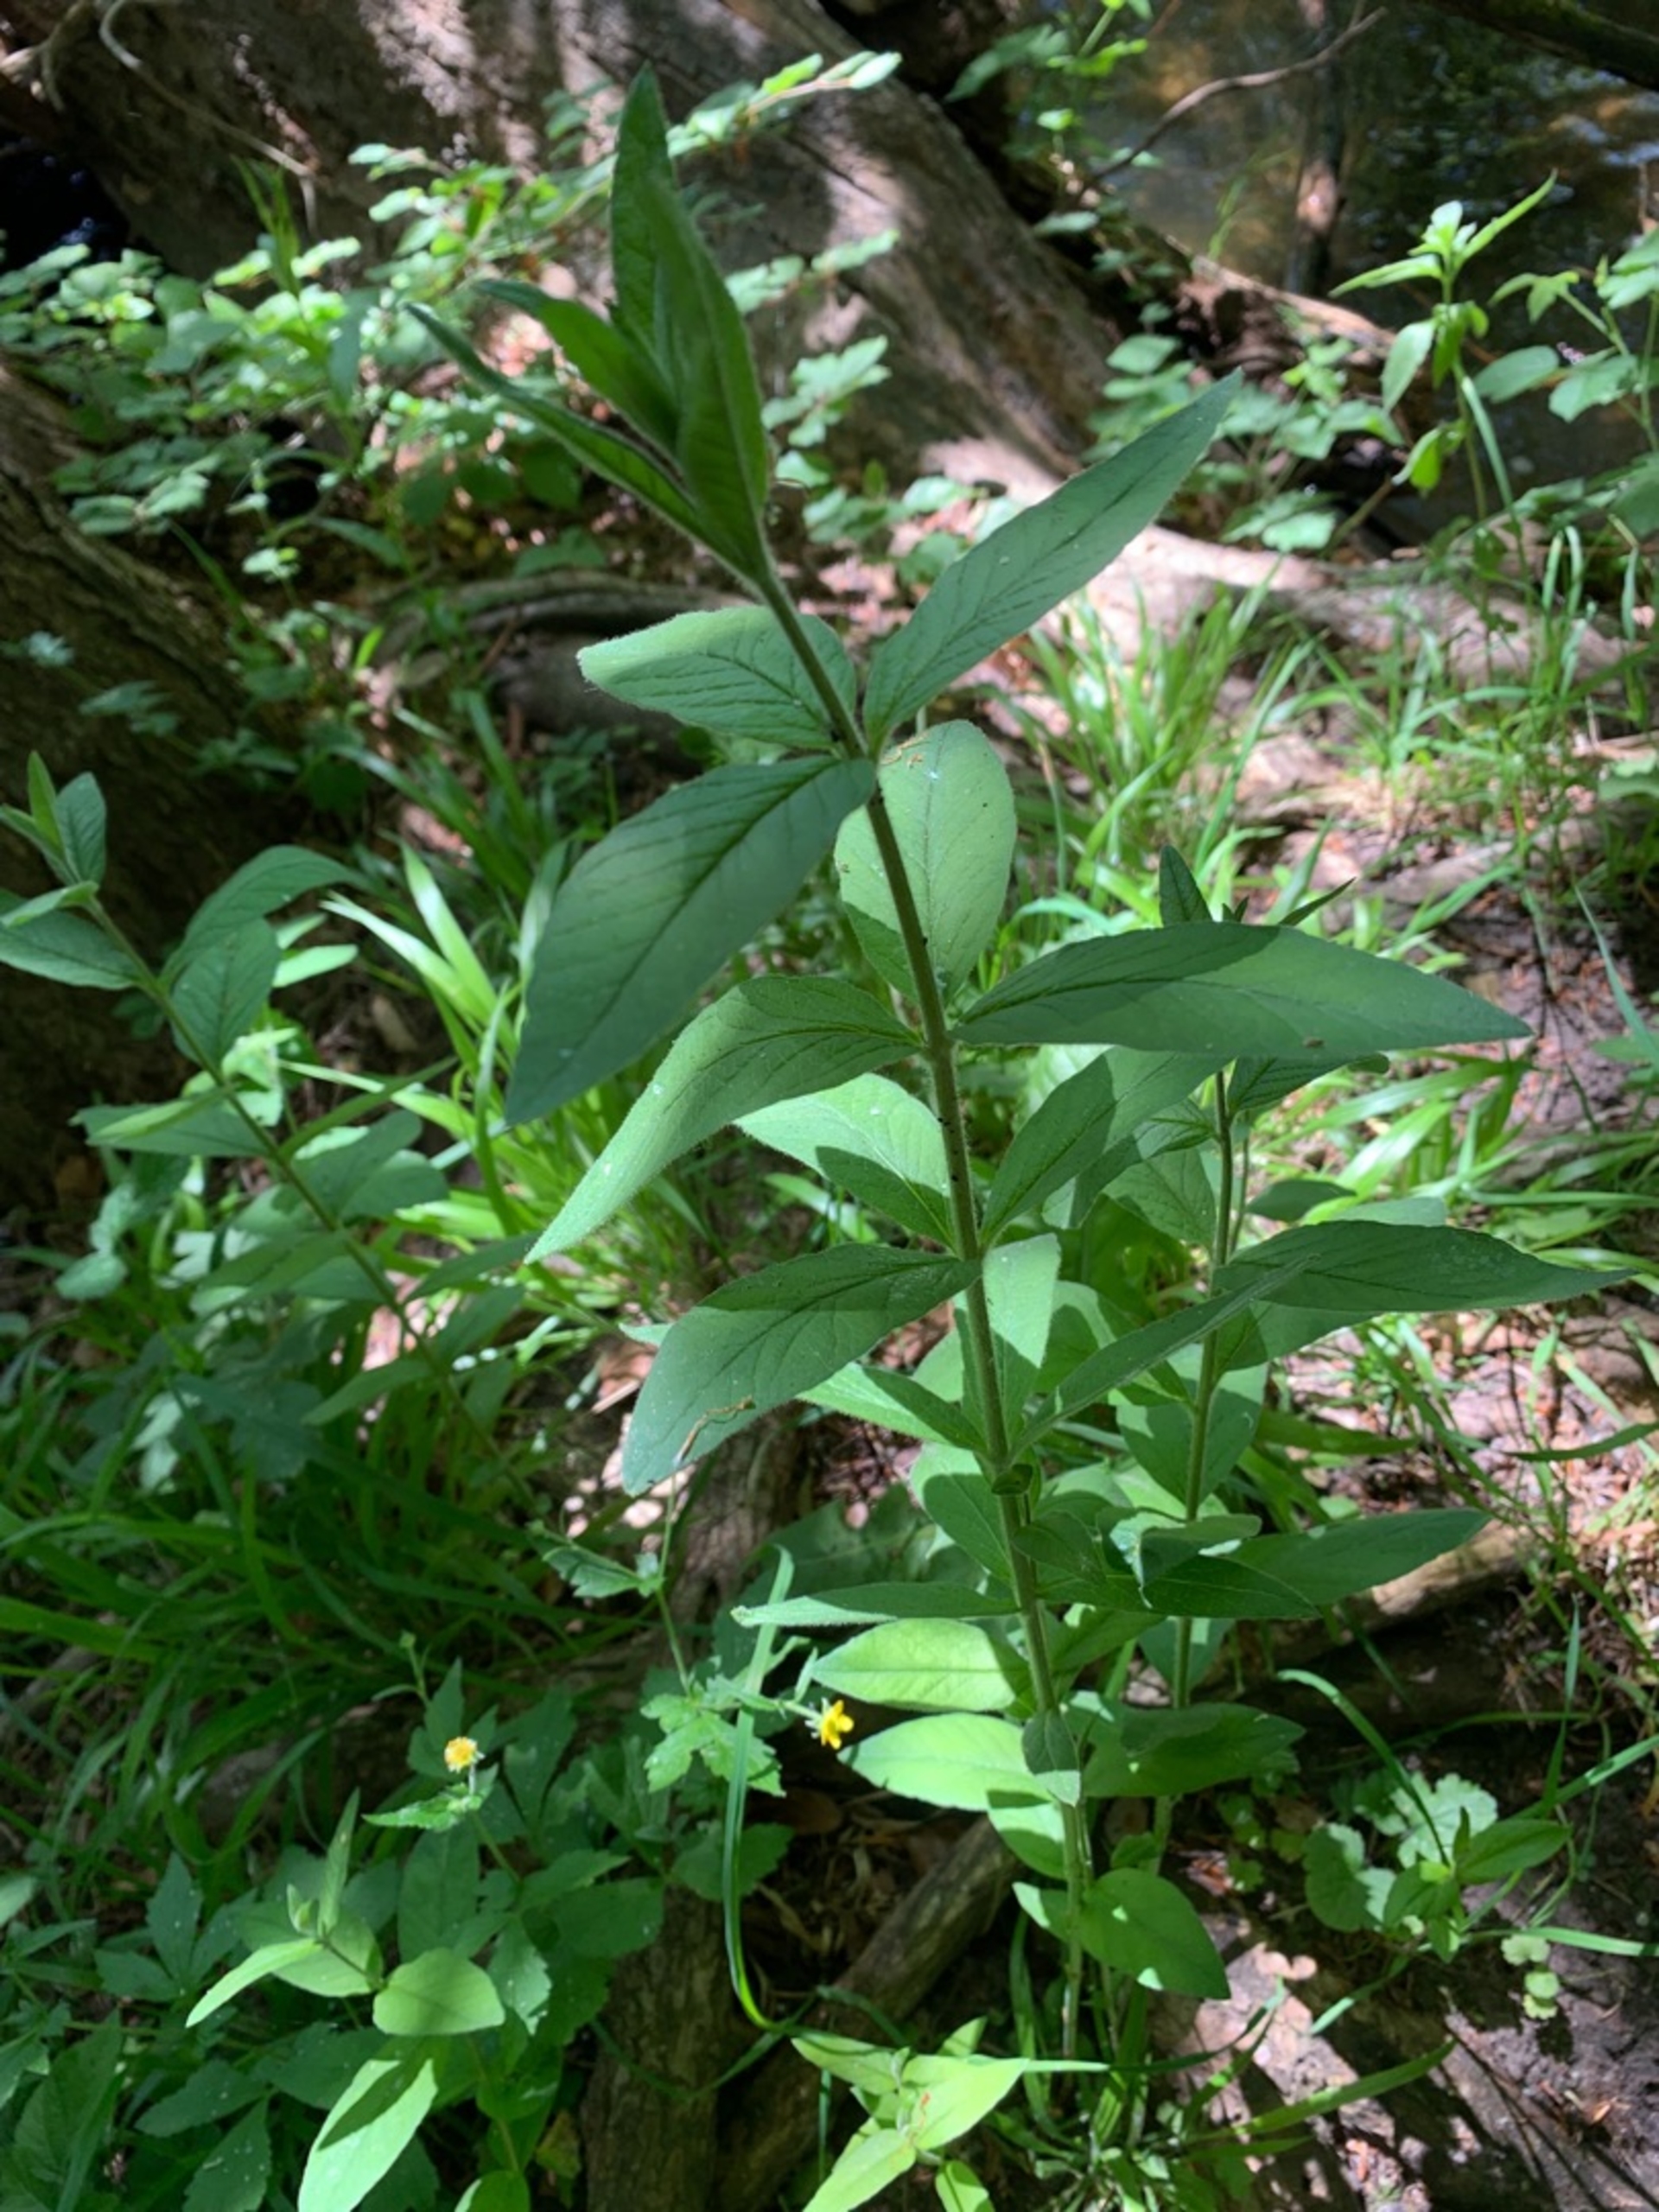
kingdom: Plantae
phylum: Tracheophyta
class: Magnoliopsida
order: Ericales
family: Primulaceae
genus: Lysimachia
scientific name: Lysimachia vulgaris
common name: Almindelig fredløs
